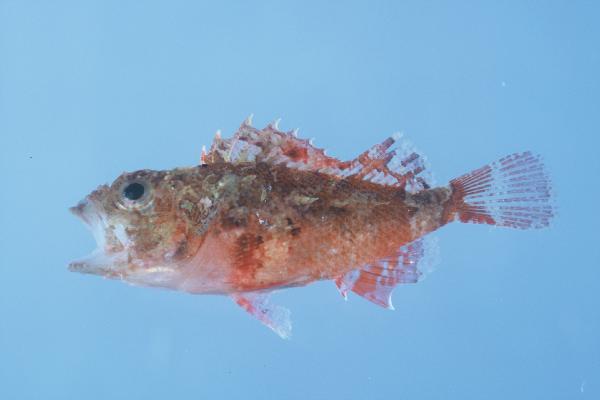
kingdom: Animalia
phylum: Chordata
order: Scorpaeniformes
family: Scorpaenidae
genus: Scorpaenopsis
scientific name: Scorpaenopsis gilchristi
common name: Gilchrist's scorpionfish
